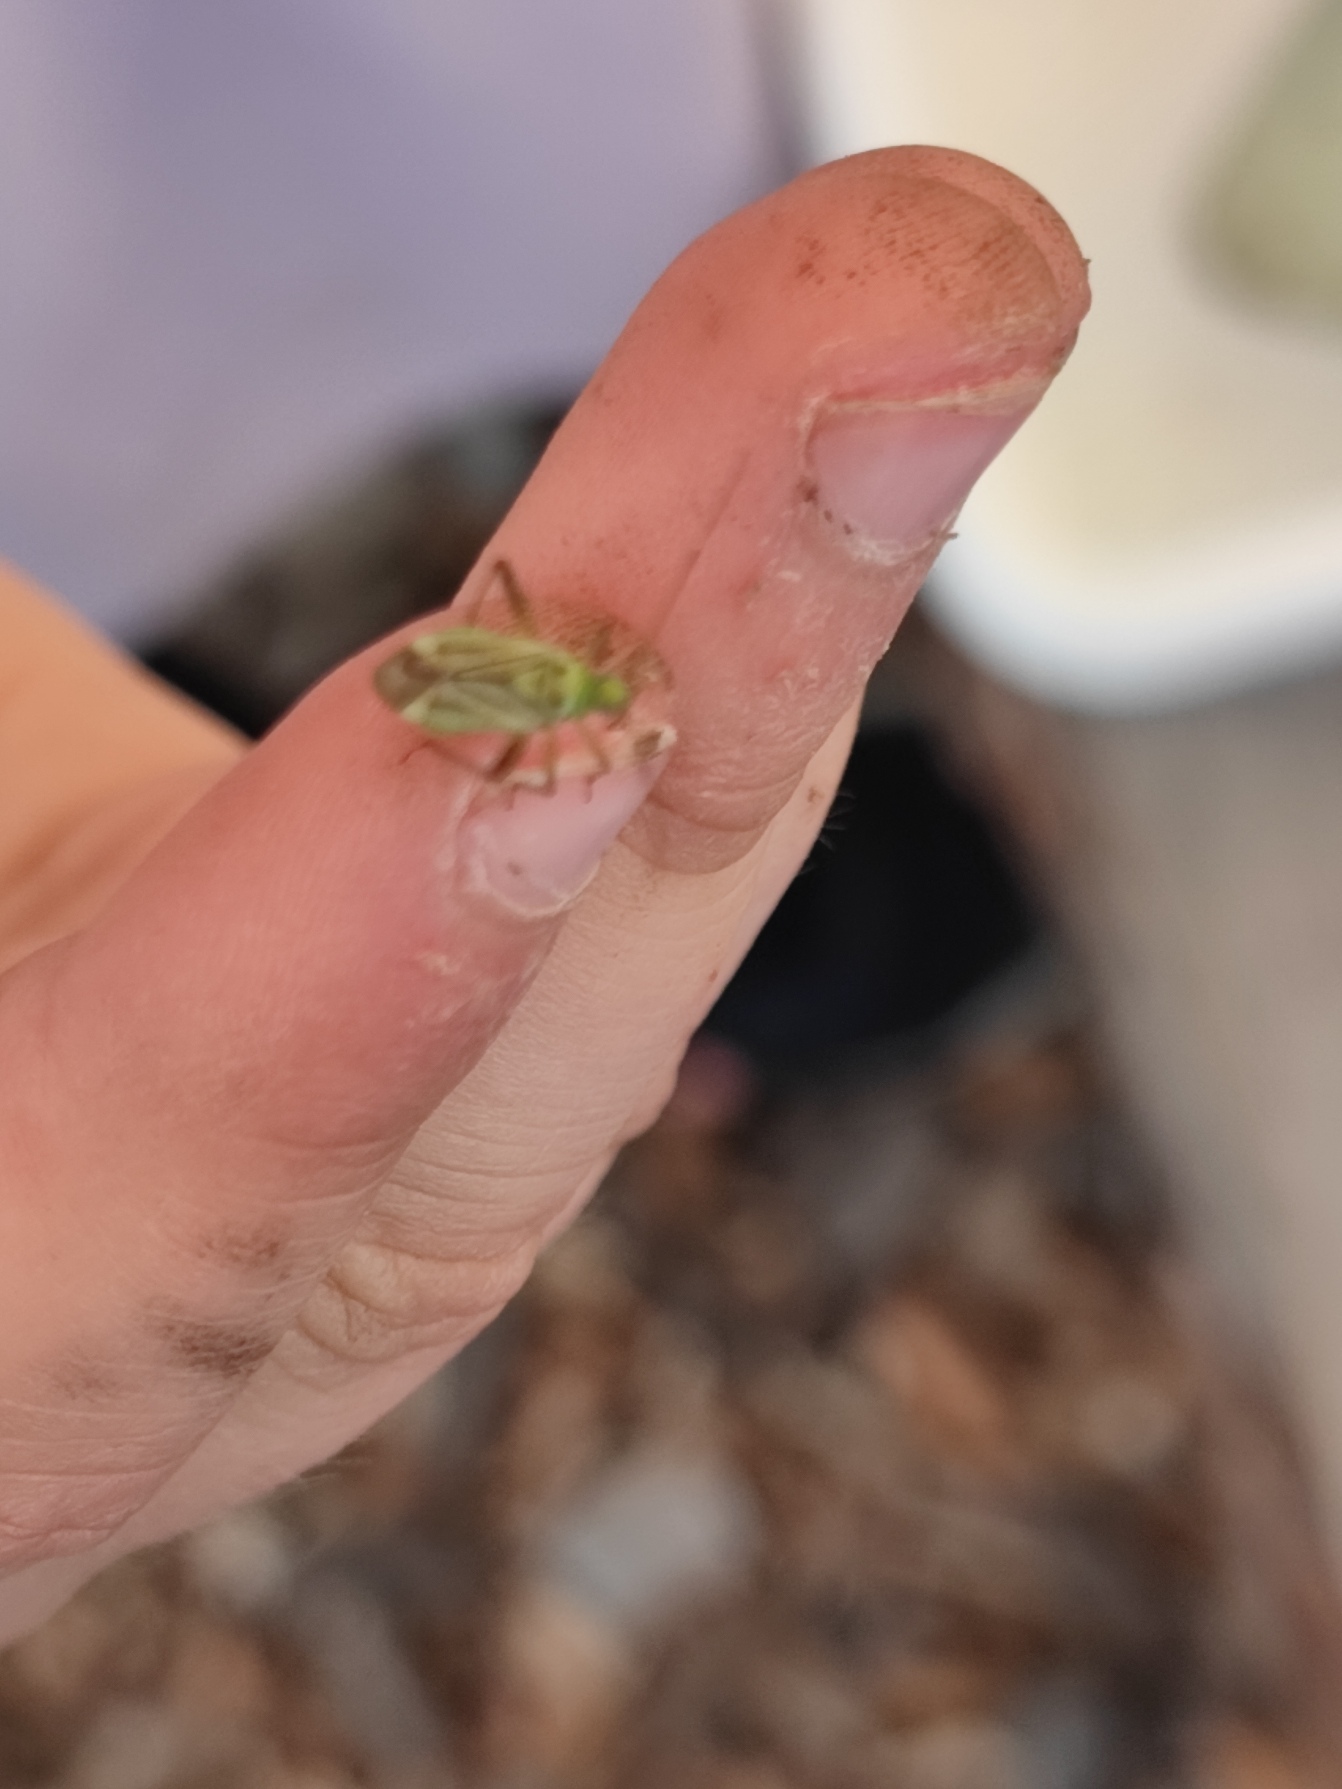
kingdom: Animalia
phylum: Arthropoda
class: Insecta
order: Hemiptera
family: Miridae
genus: Adelphocoris
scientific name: Adelphocoris quadripunctatus
